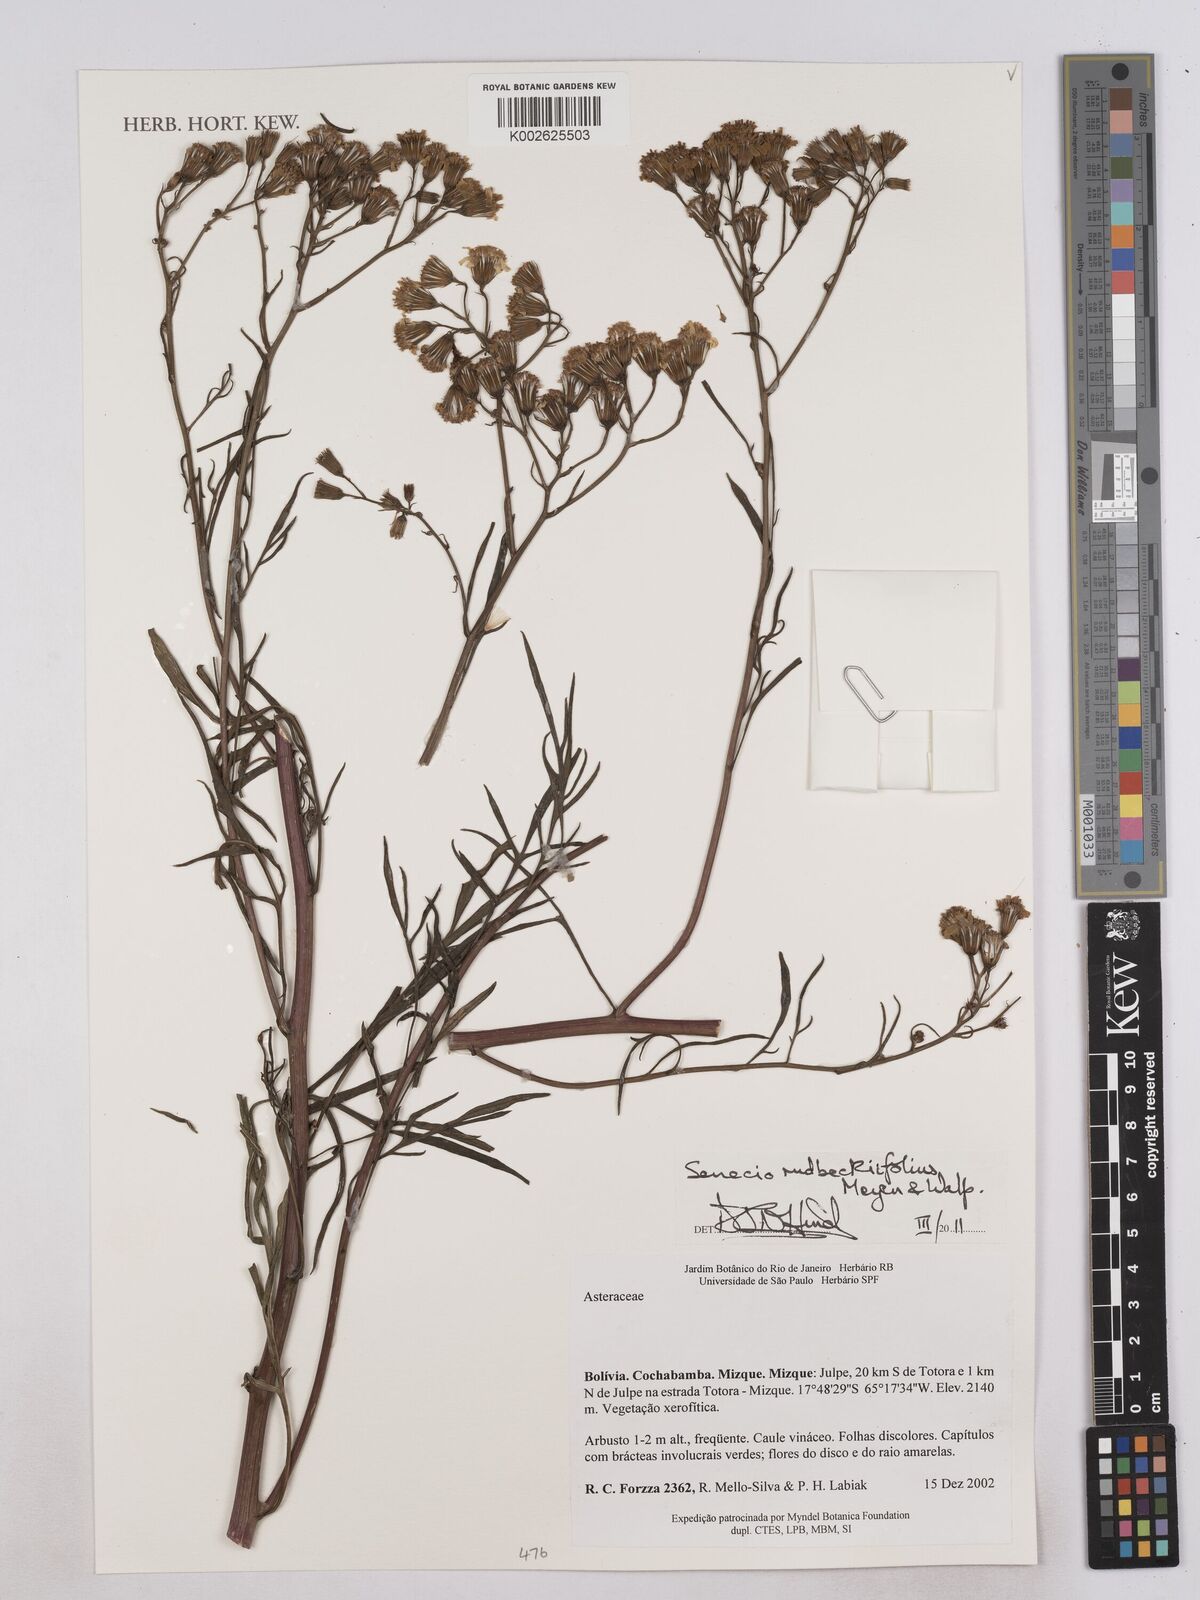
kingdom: Plantae
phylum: Tracheophyta
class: Magnoliopsida
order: Asterales
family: Asteraceae
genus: Senecio
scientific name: Senecio rudbeckiifolius
